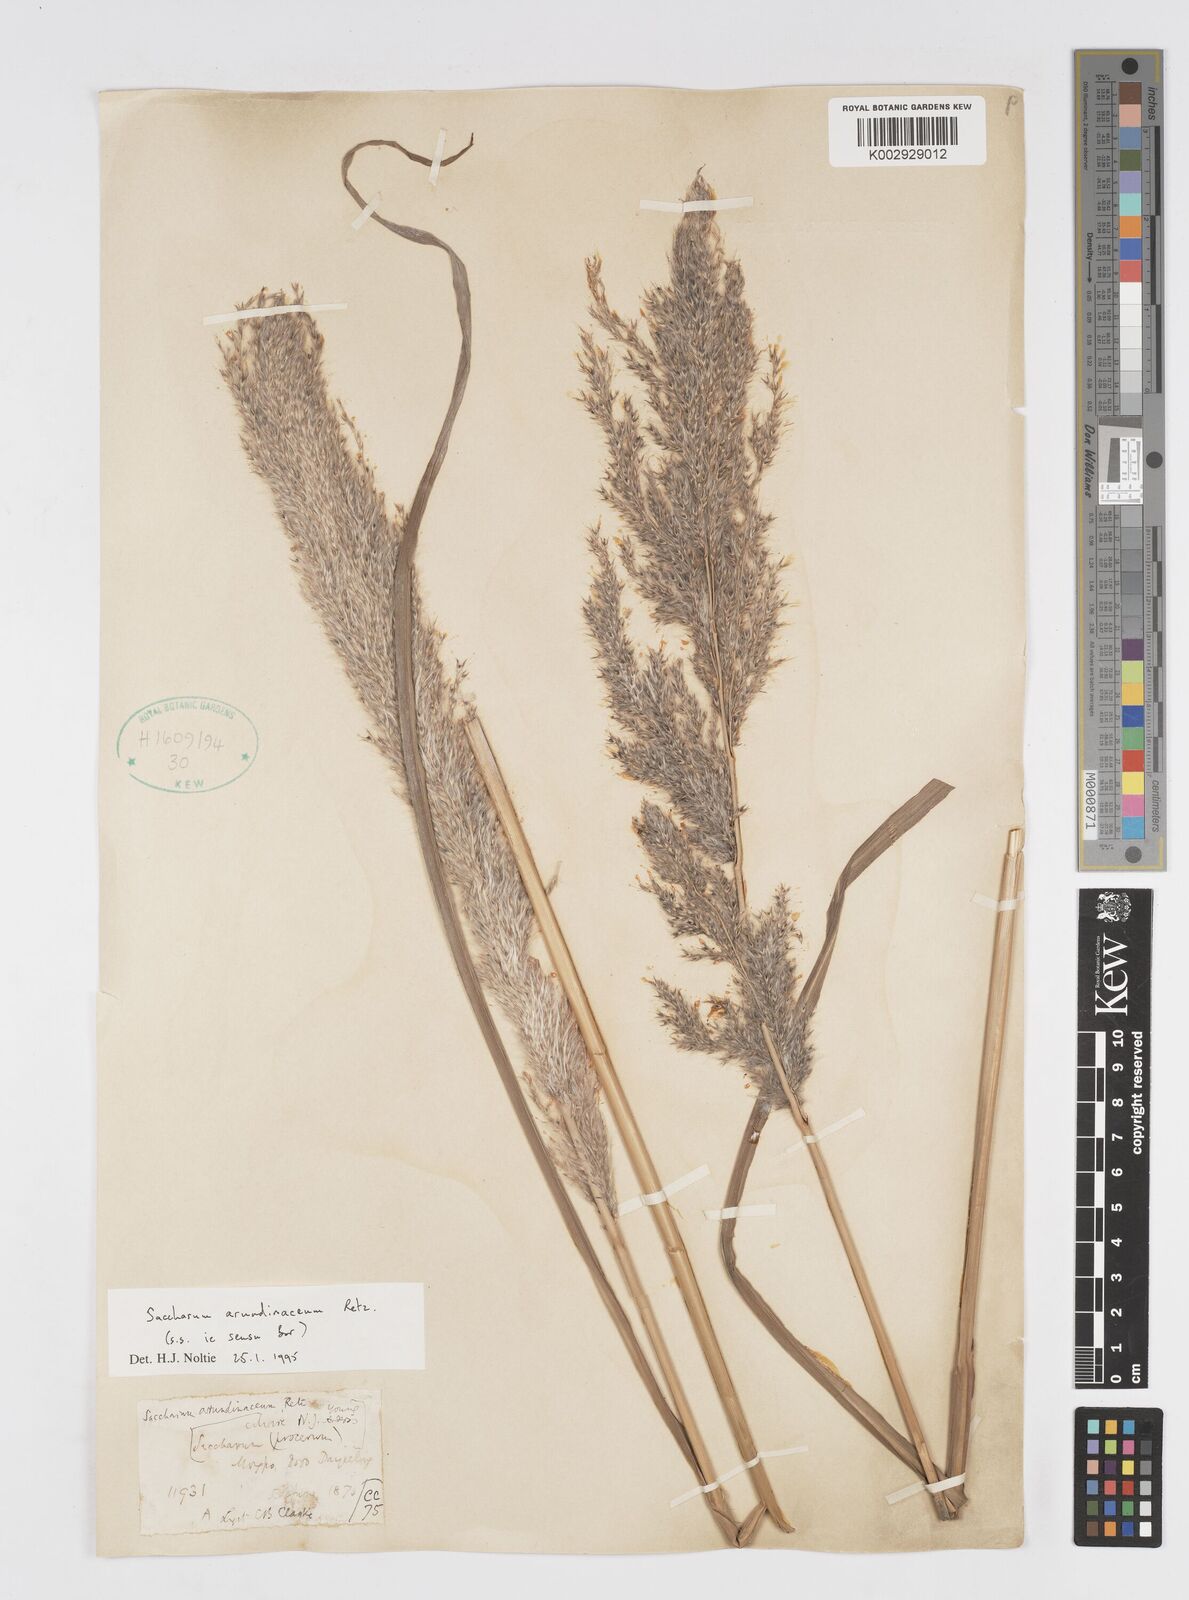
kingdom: Plantae
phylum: Tracheophyta
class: Liliopsida
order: Poales
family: Poaceae
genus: Tripidium
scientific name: Tripidium arundinaceum
